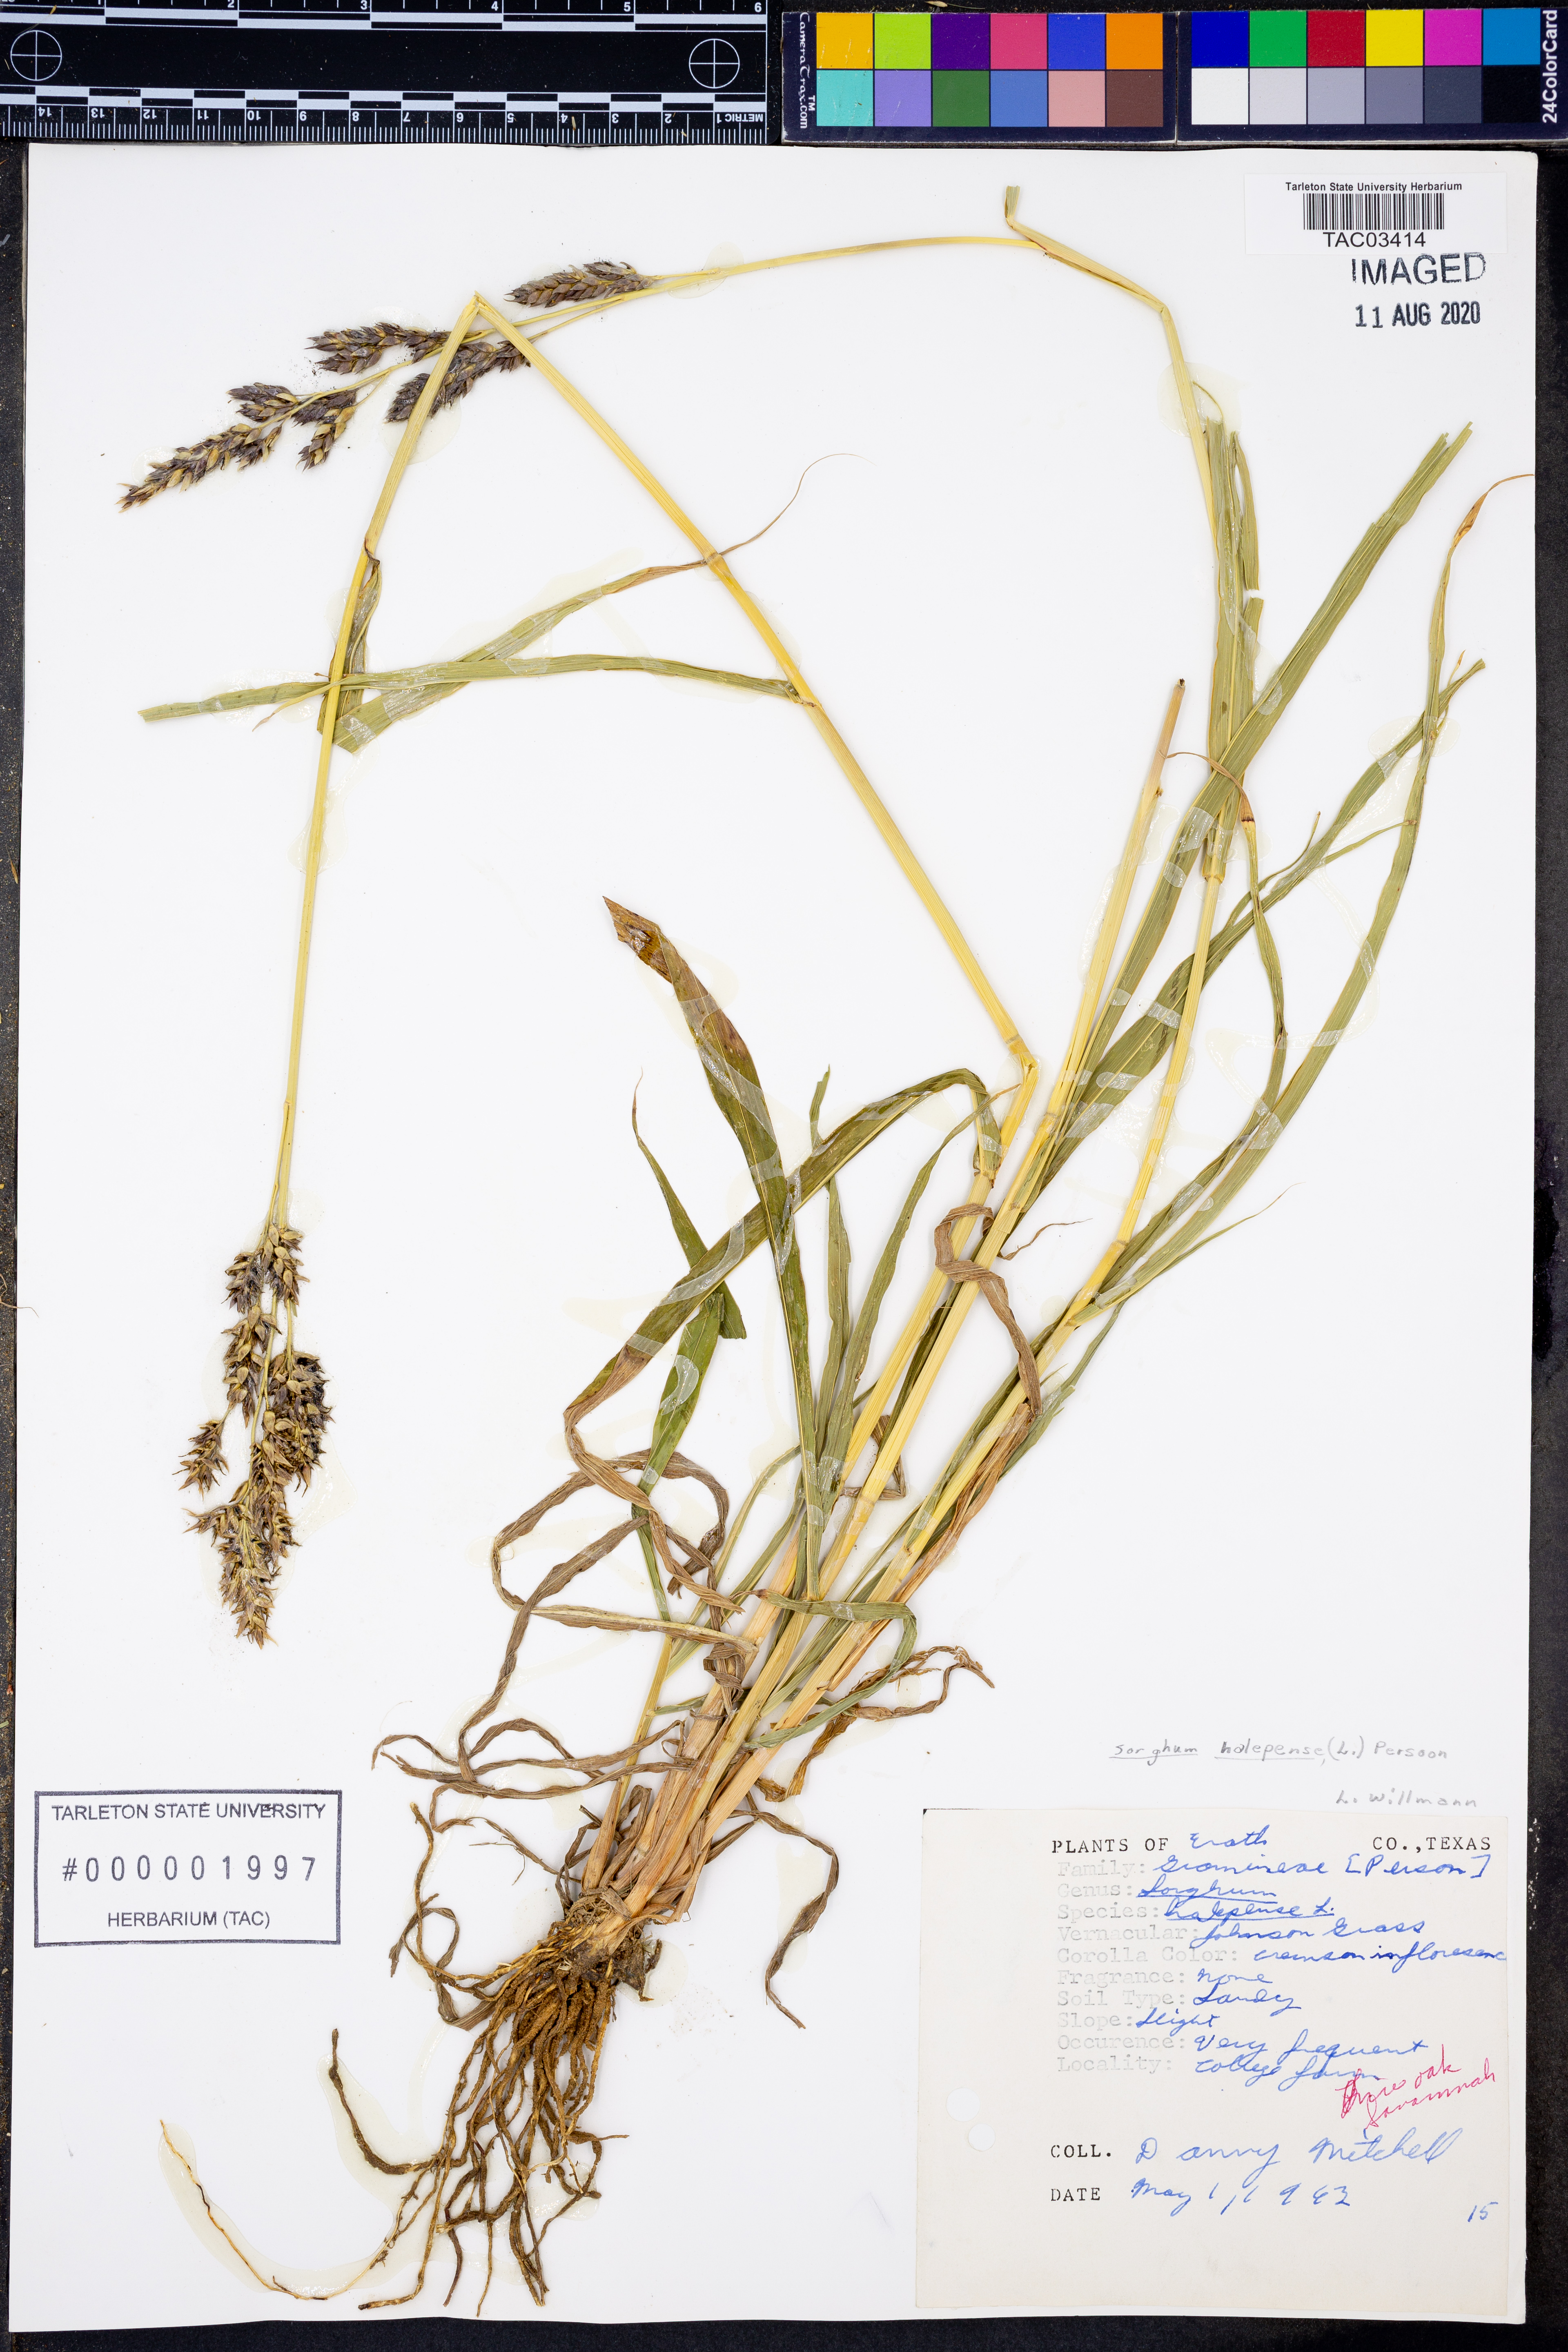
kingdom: Plantae
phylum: Tracheophyta
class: Liliopsida
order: Poales
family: Poaceae
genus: Sorghum
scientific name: Sorghum halepense
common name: Johnson-grass
